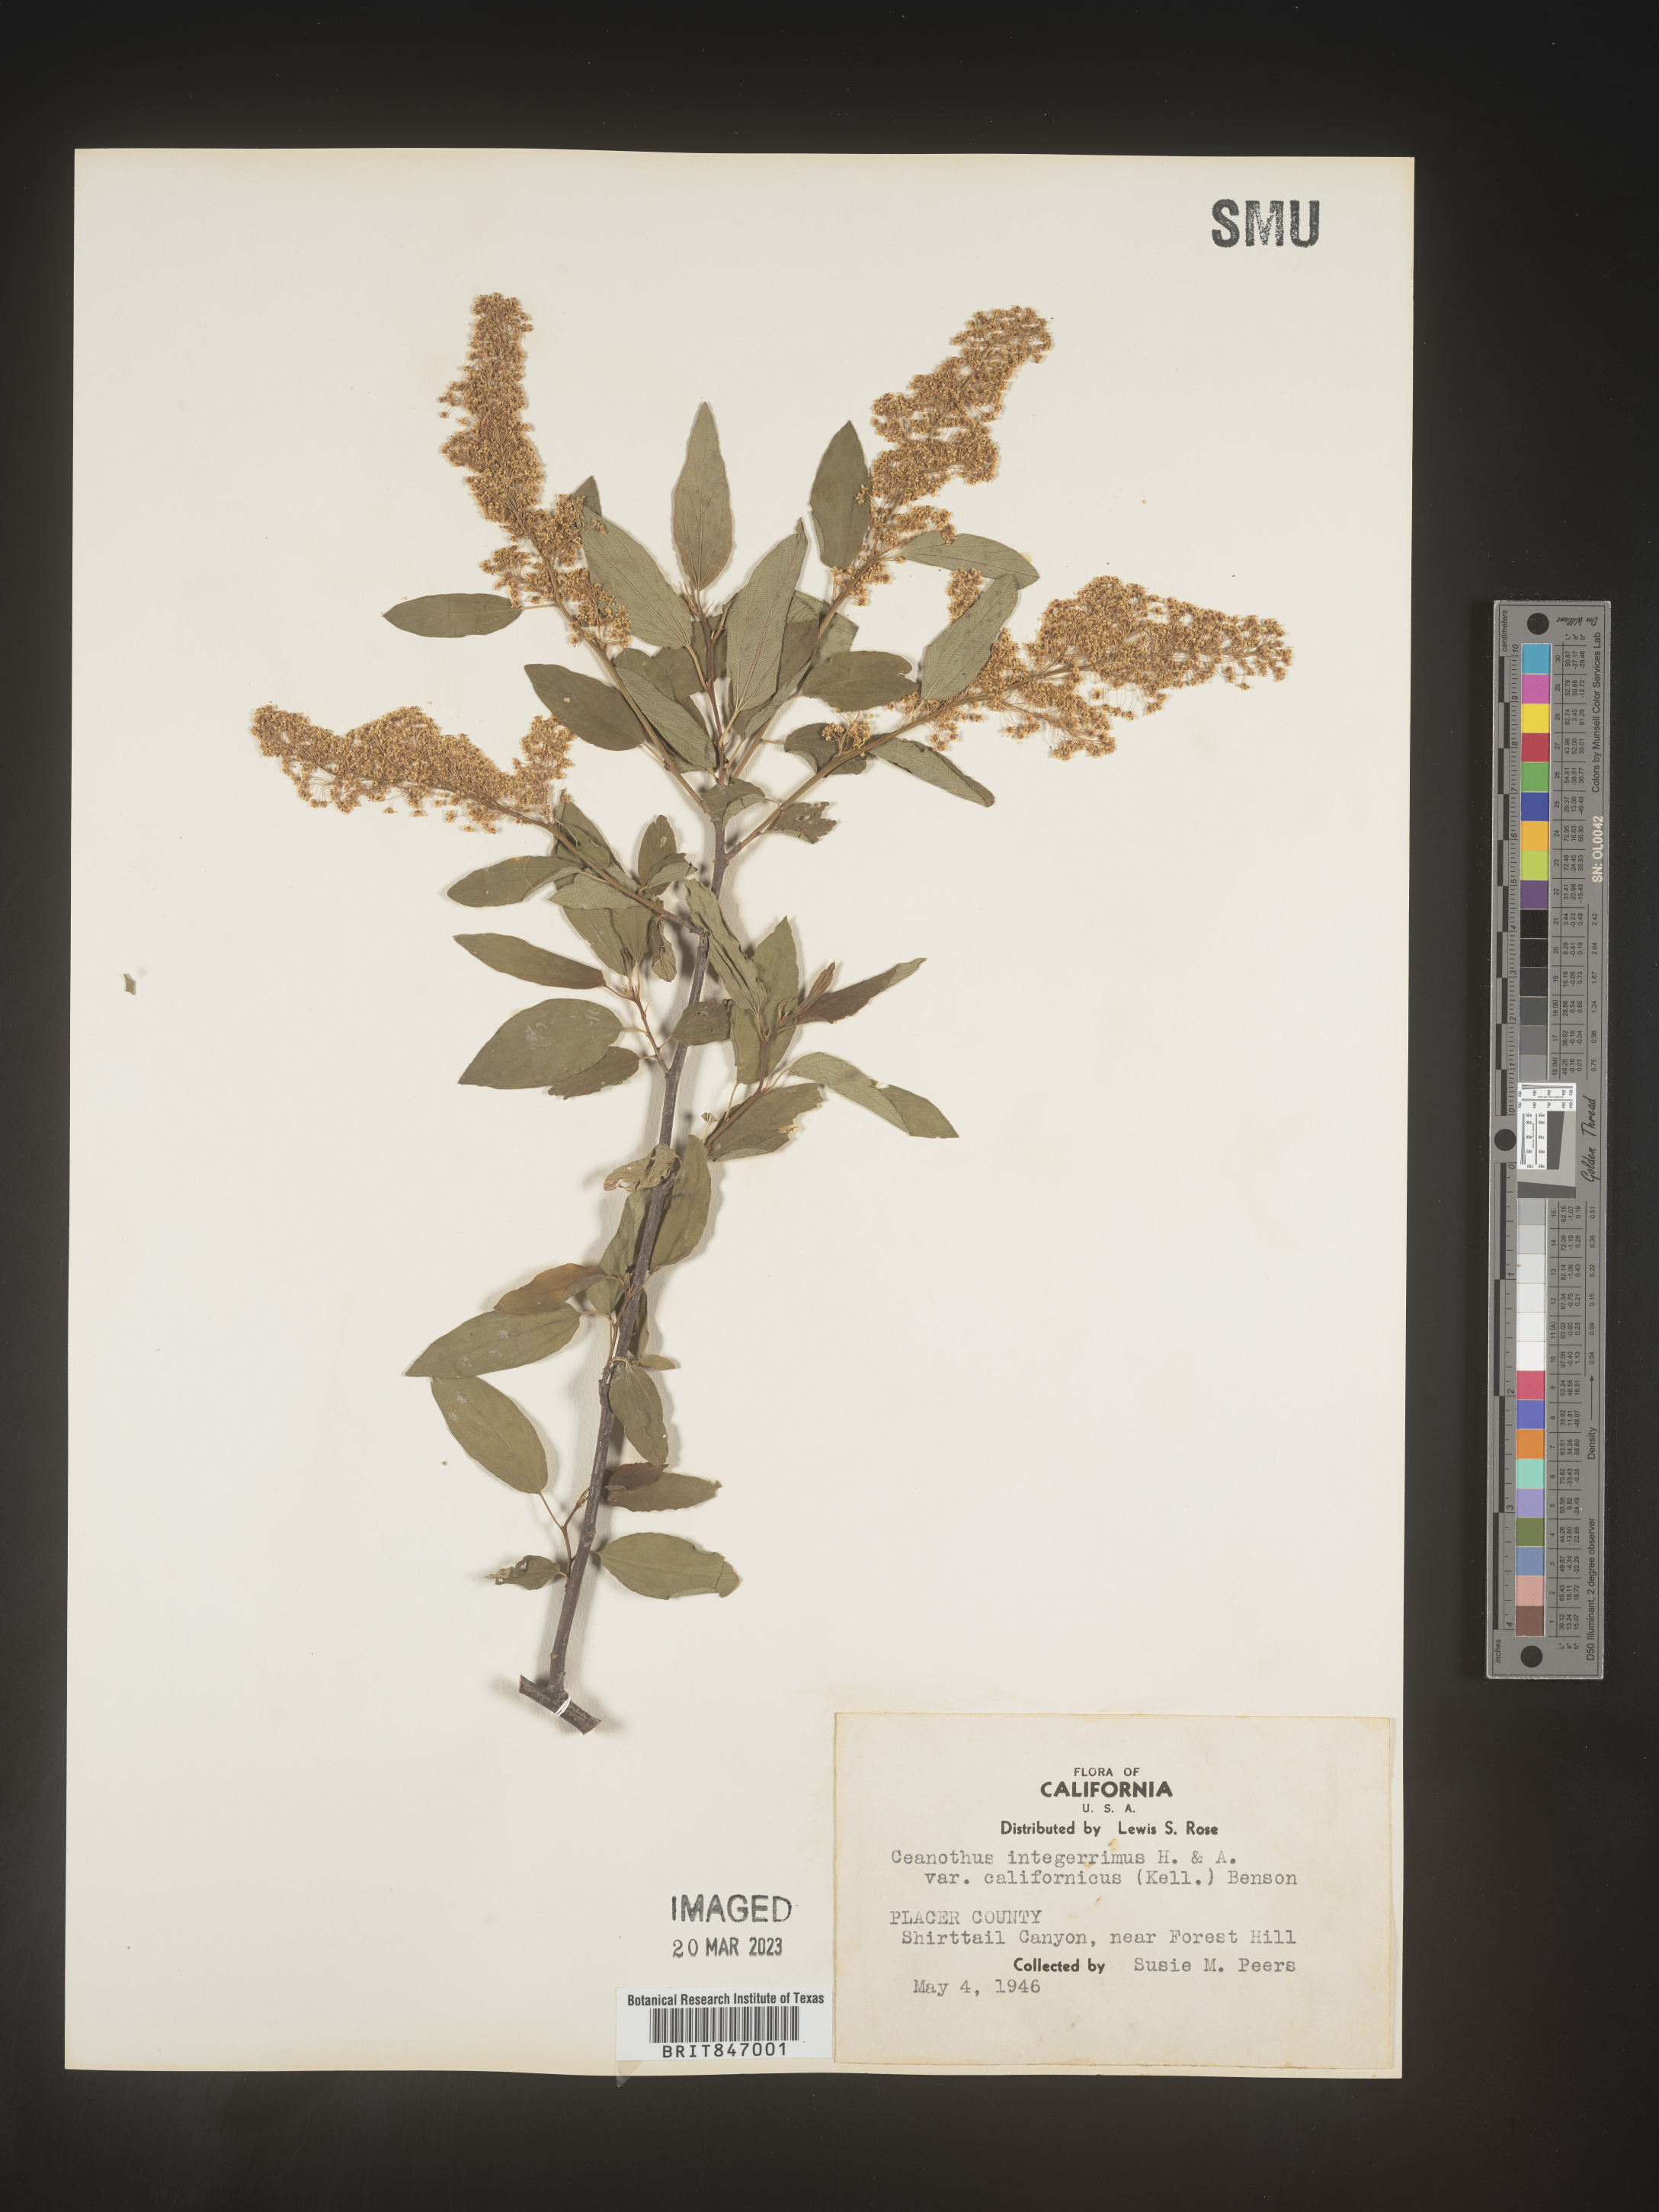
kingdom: Plantae
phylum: Tracheophyta
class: Magnoliopsida
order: Rosales
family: Rhamnaceae
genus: Ceanothus
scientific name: Ceanothus integerrimus
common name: Deerbrush ceanothus
